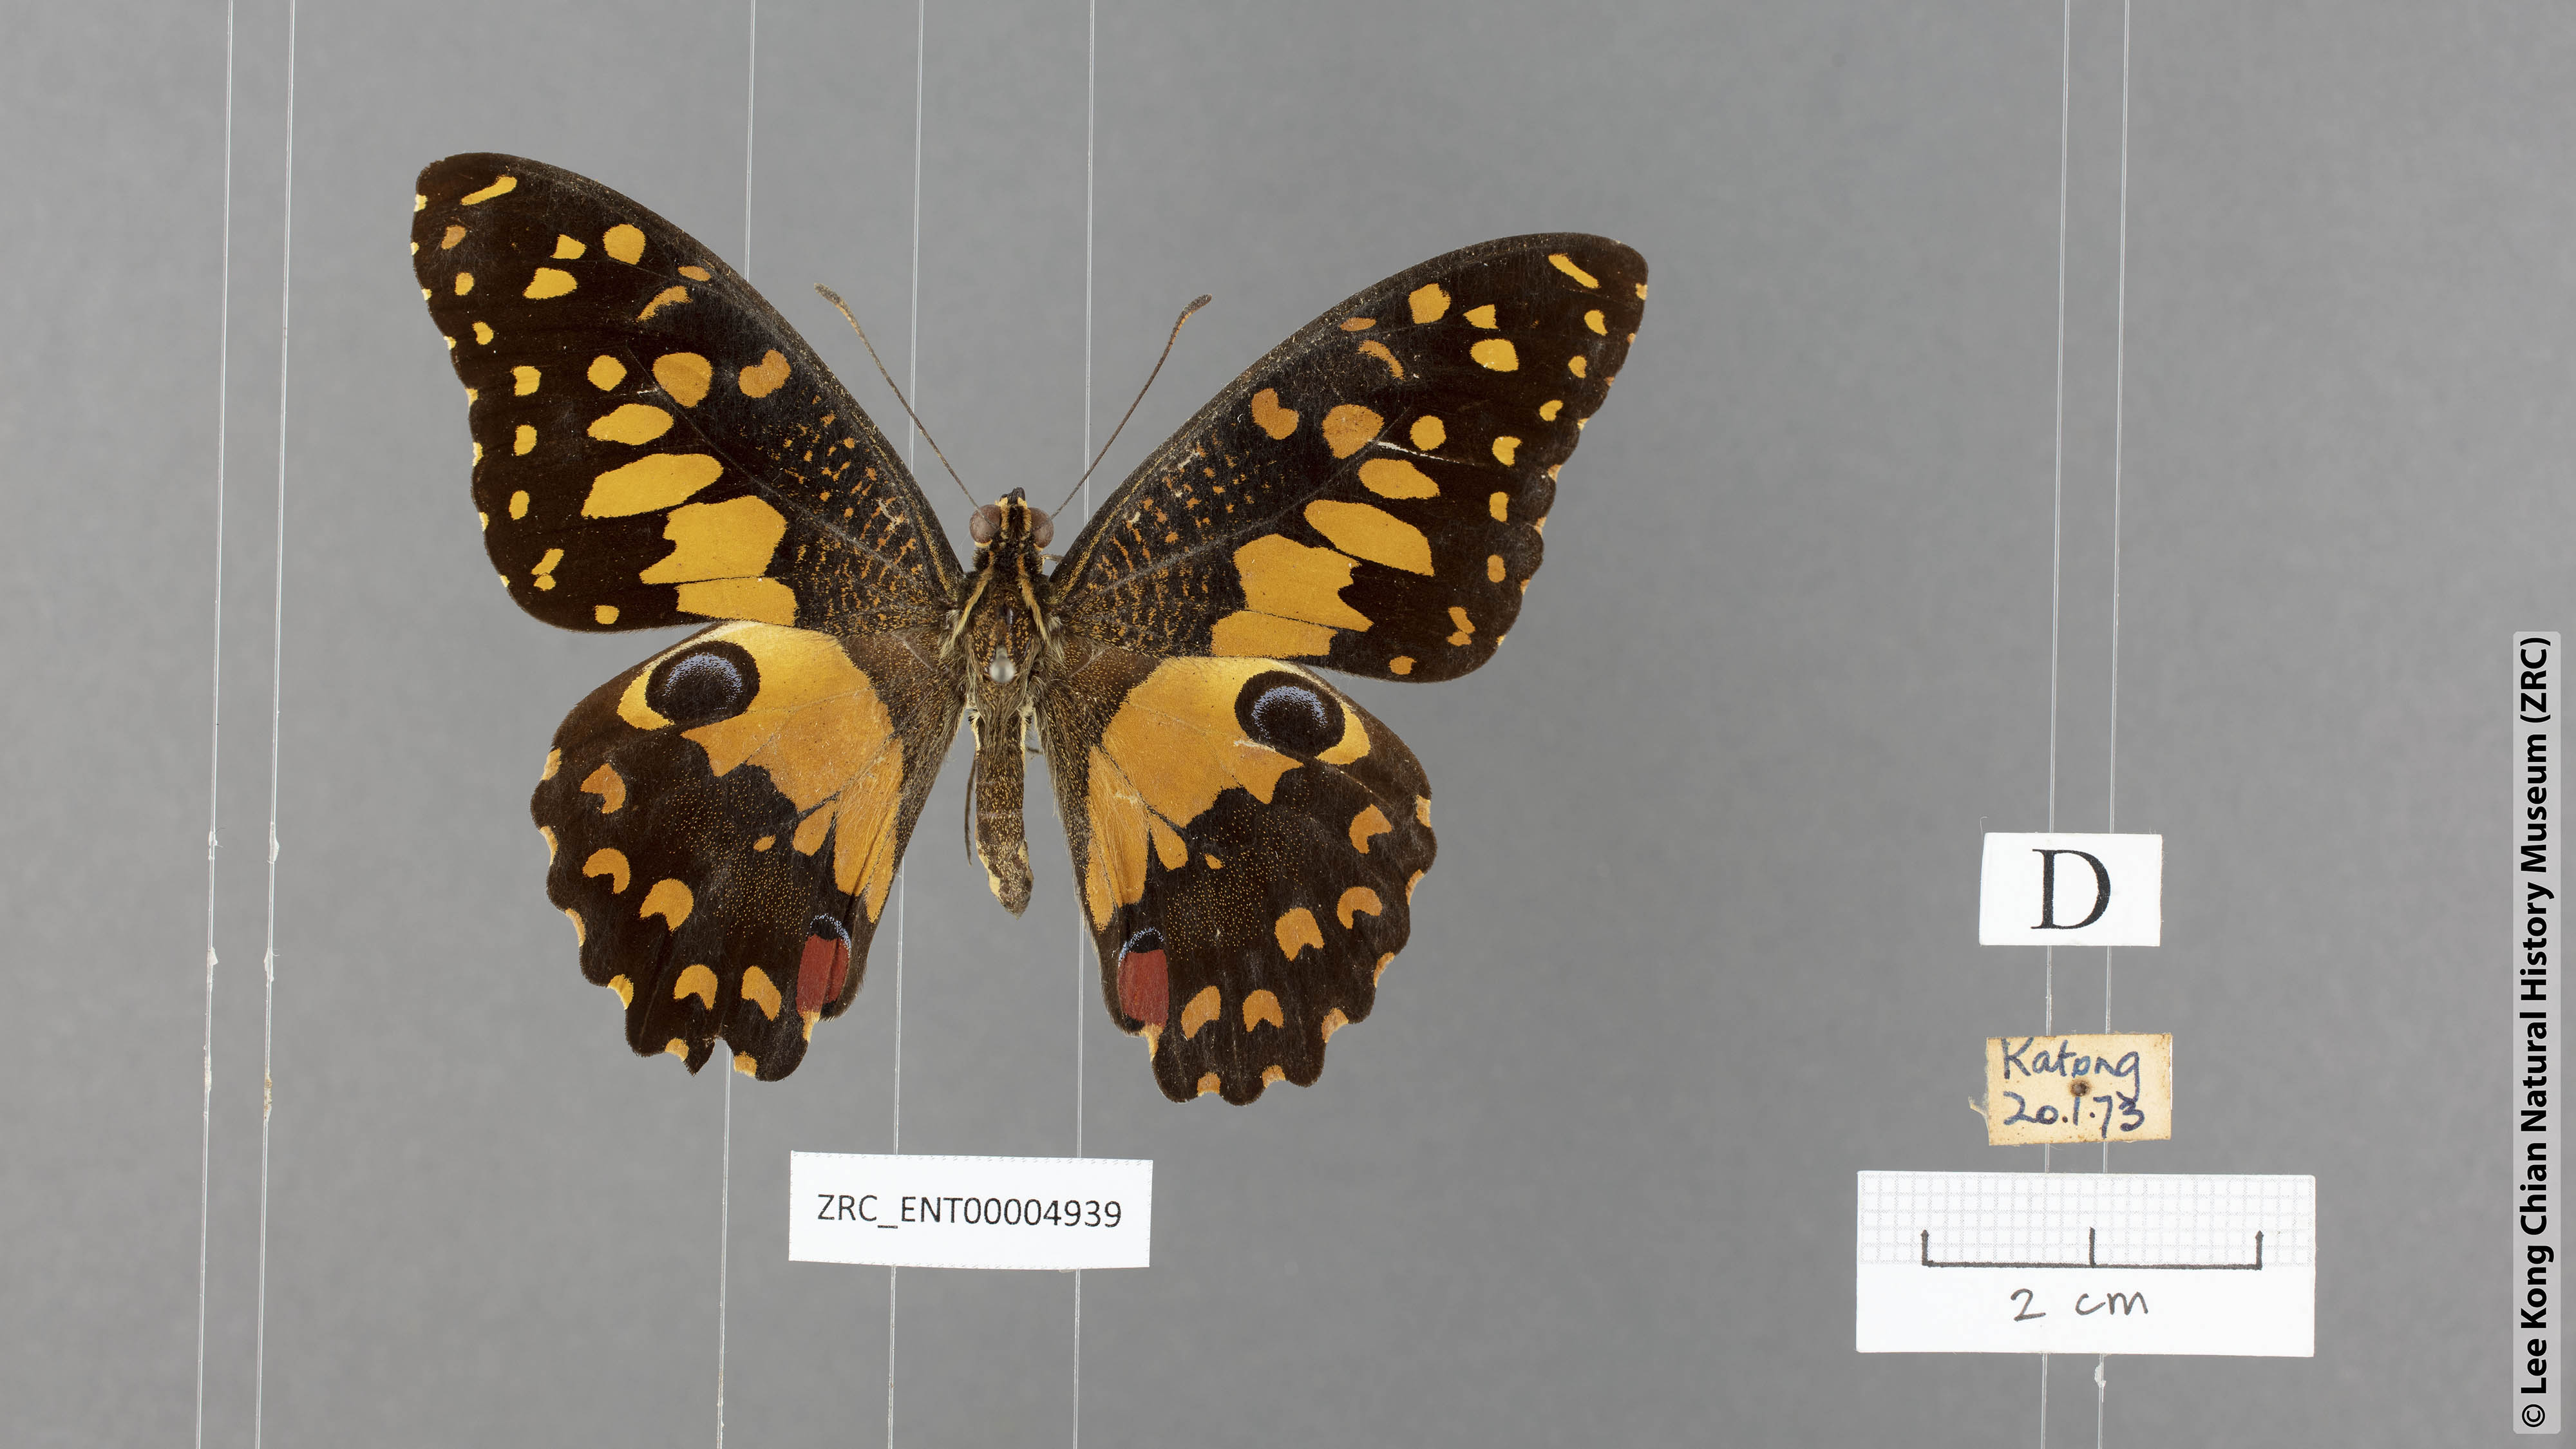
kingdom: Animalia
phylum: Arthropoda
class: Insecta
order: Lepidoptera
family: Papilionidae
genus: Papilio
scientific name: Papilio demoleus
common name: Lime butterfly
